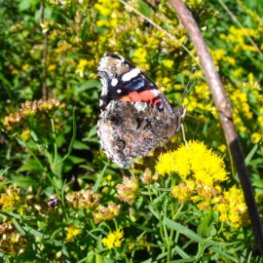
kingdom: Animalia
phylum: Arthropoda
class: Insecta
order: Lepidoptera
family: Nymphalidae
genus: Vanessa
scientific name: Vanessa atalanta
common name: Red Admiral
